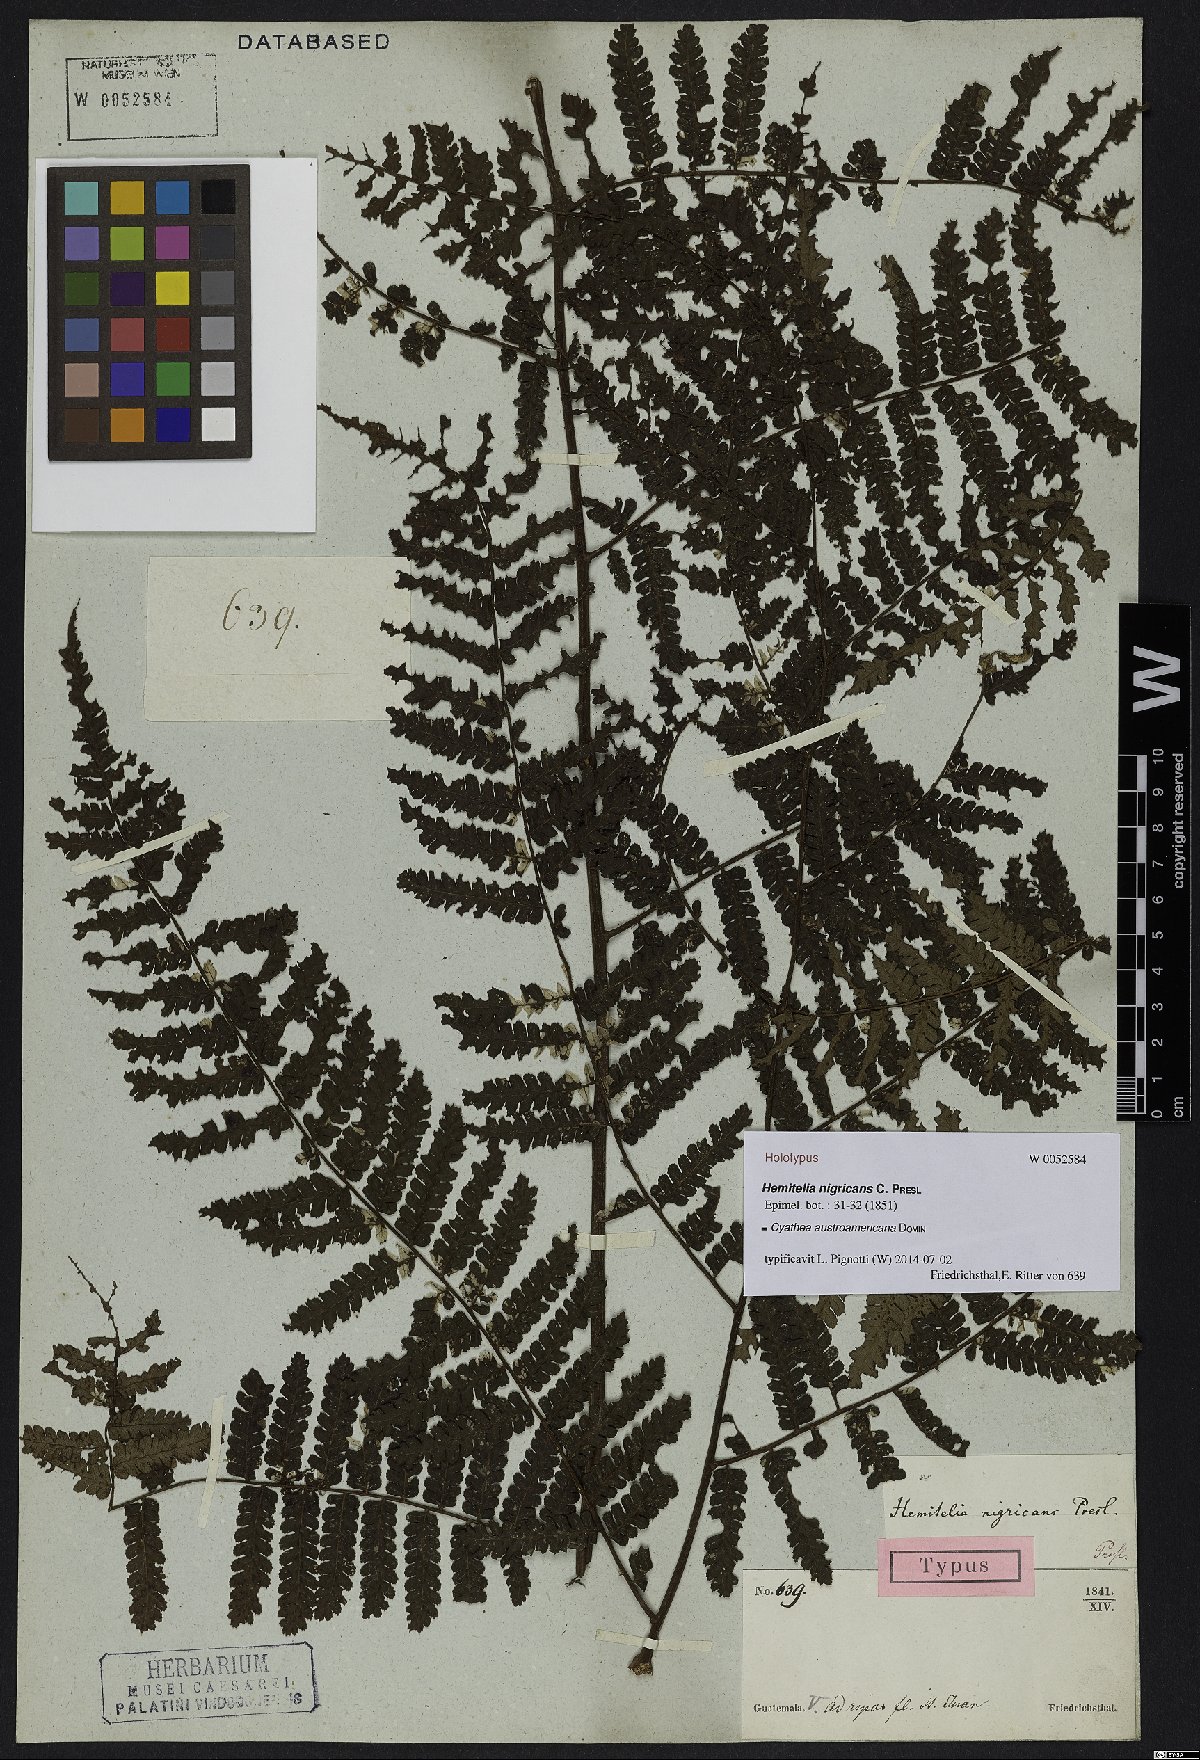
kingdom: Plantae
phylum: Tracheophyta
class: Polypodiopsida
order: Cyatheales
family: Cyatheaceae
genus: Cyathea
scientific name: Cyathea austroamericana
